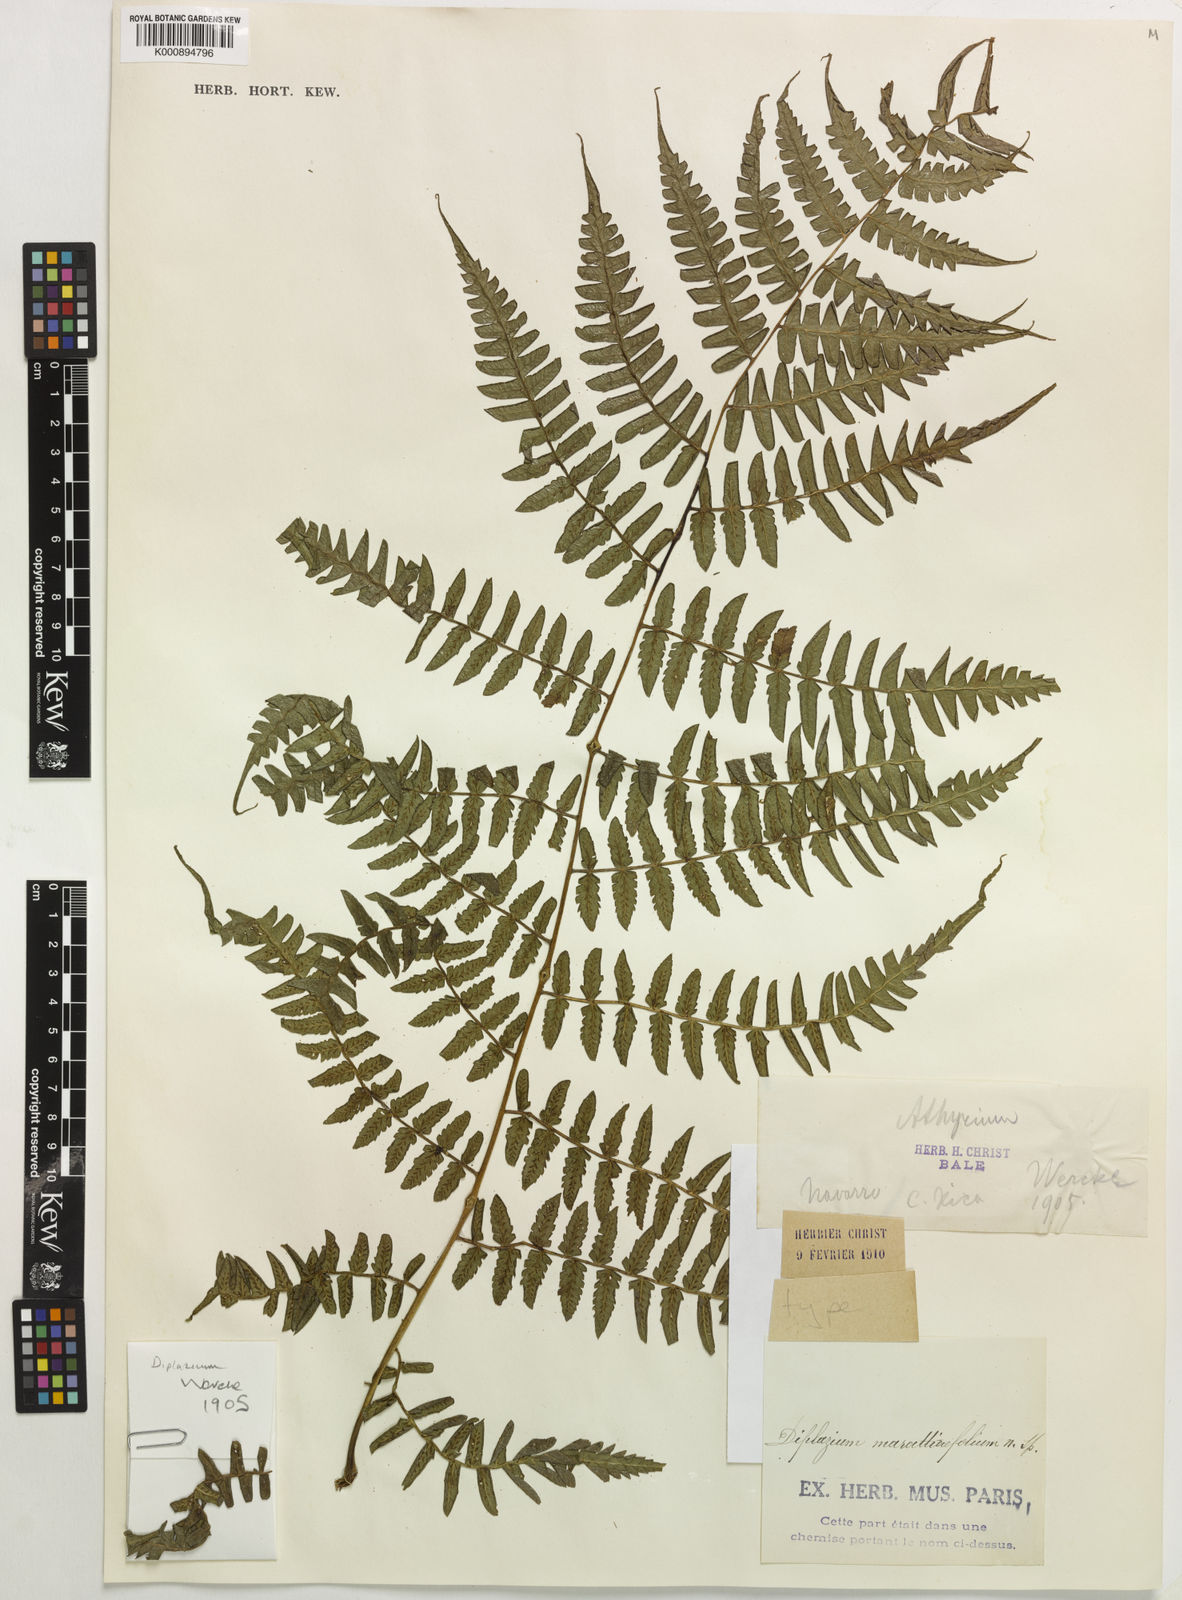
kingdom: Plantae
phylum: Tracheophyta
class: Polypodiopsida
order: Polypodiales
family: Athyriaceae
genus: Diplazium
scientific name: Diplazium expansum
